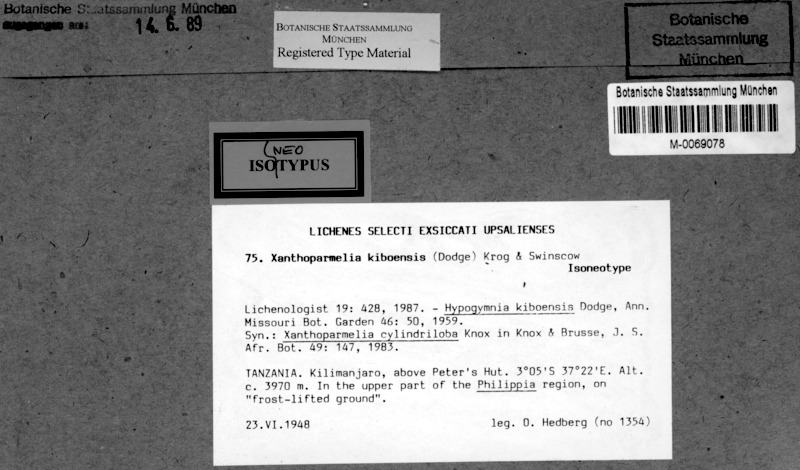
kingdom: Fungi
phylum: Ascomycota
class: Lecanoromycetes
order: Lecanorales
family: Parmeliaceae
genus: Xanthoparmelia
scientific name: Xanthoparmelia kiboensis
